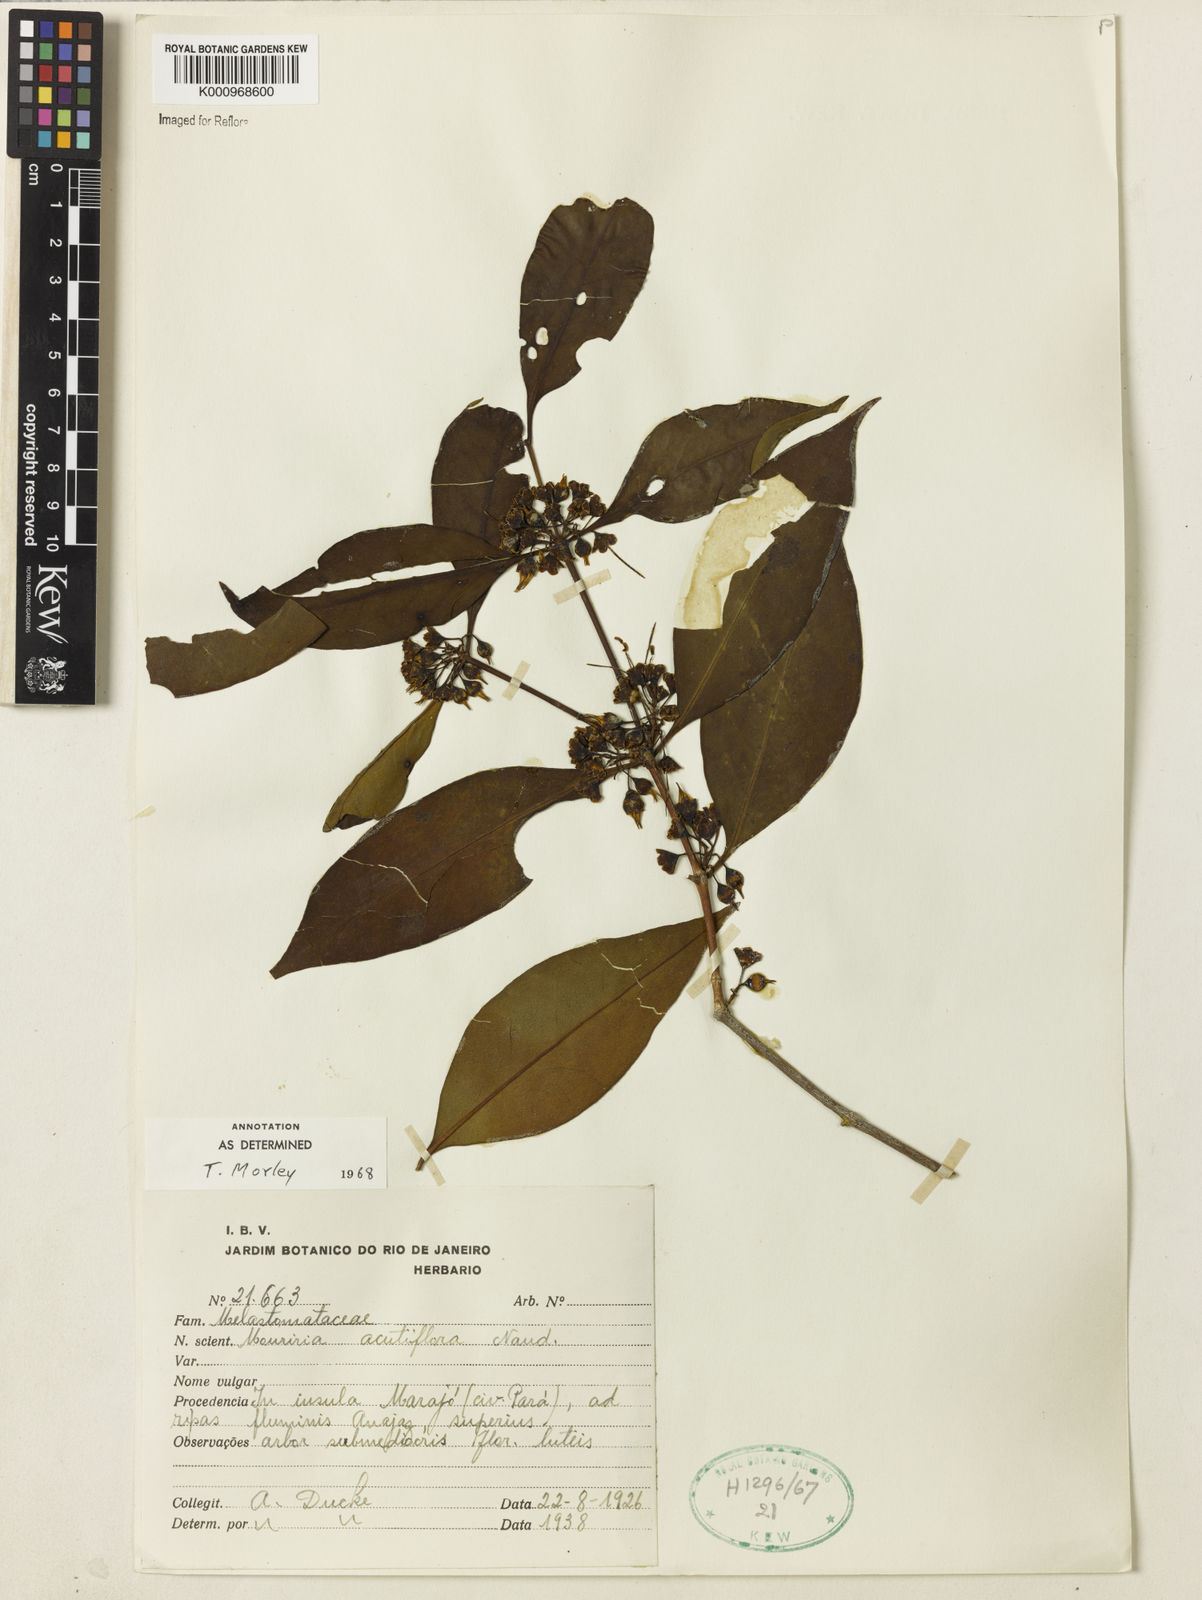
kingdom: Plantae
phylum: Tracheophyta
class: Magnoliopsida
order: Myrtales
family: Melastomataceae
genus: Mouriri
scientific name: Mouriri acutiflora
